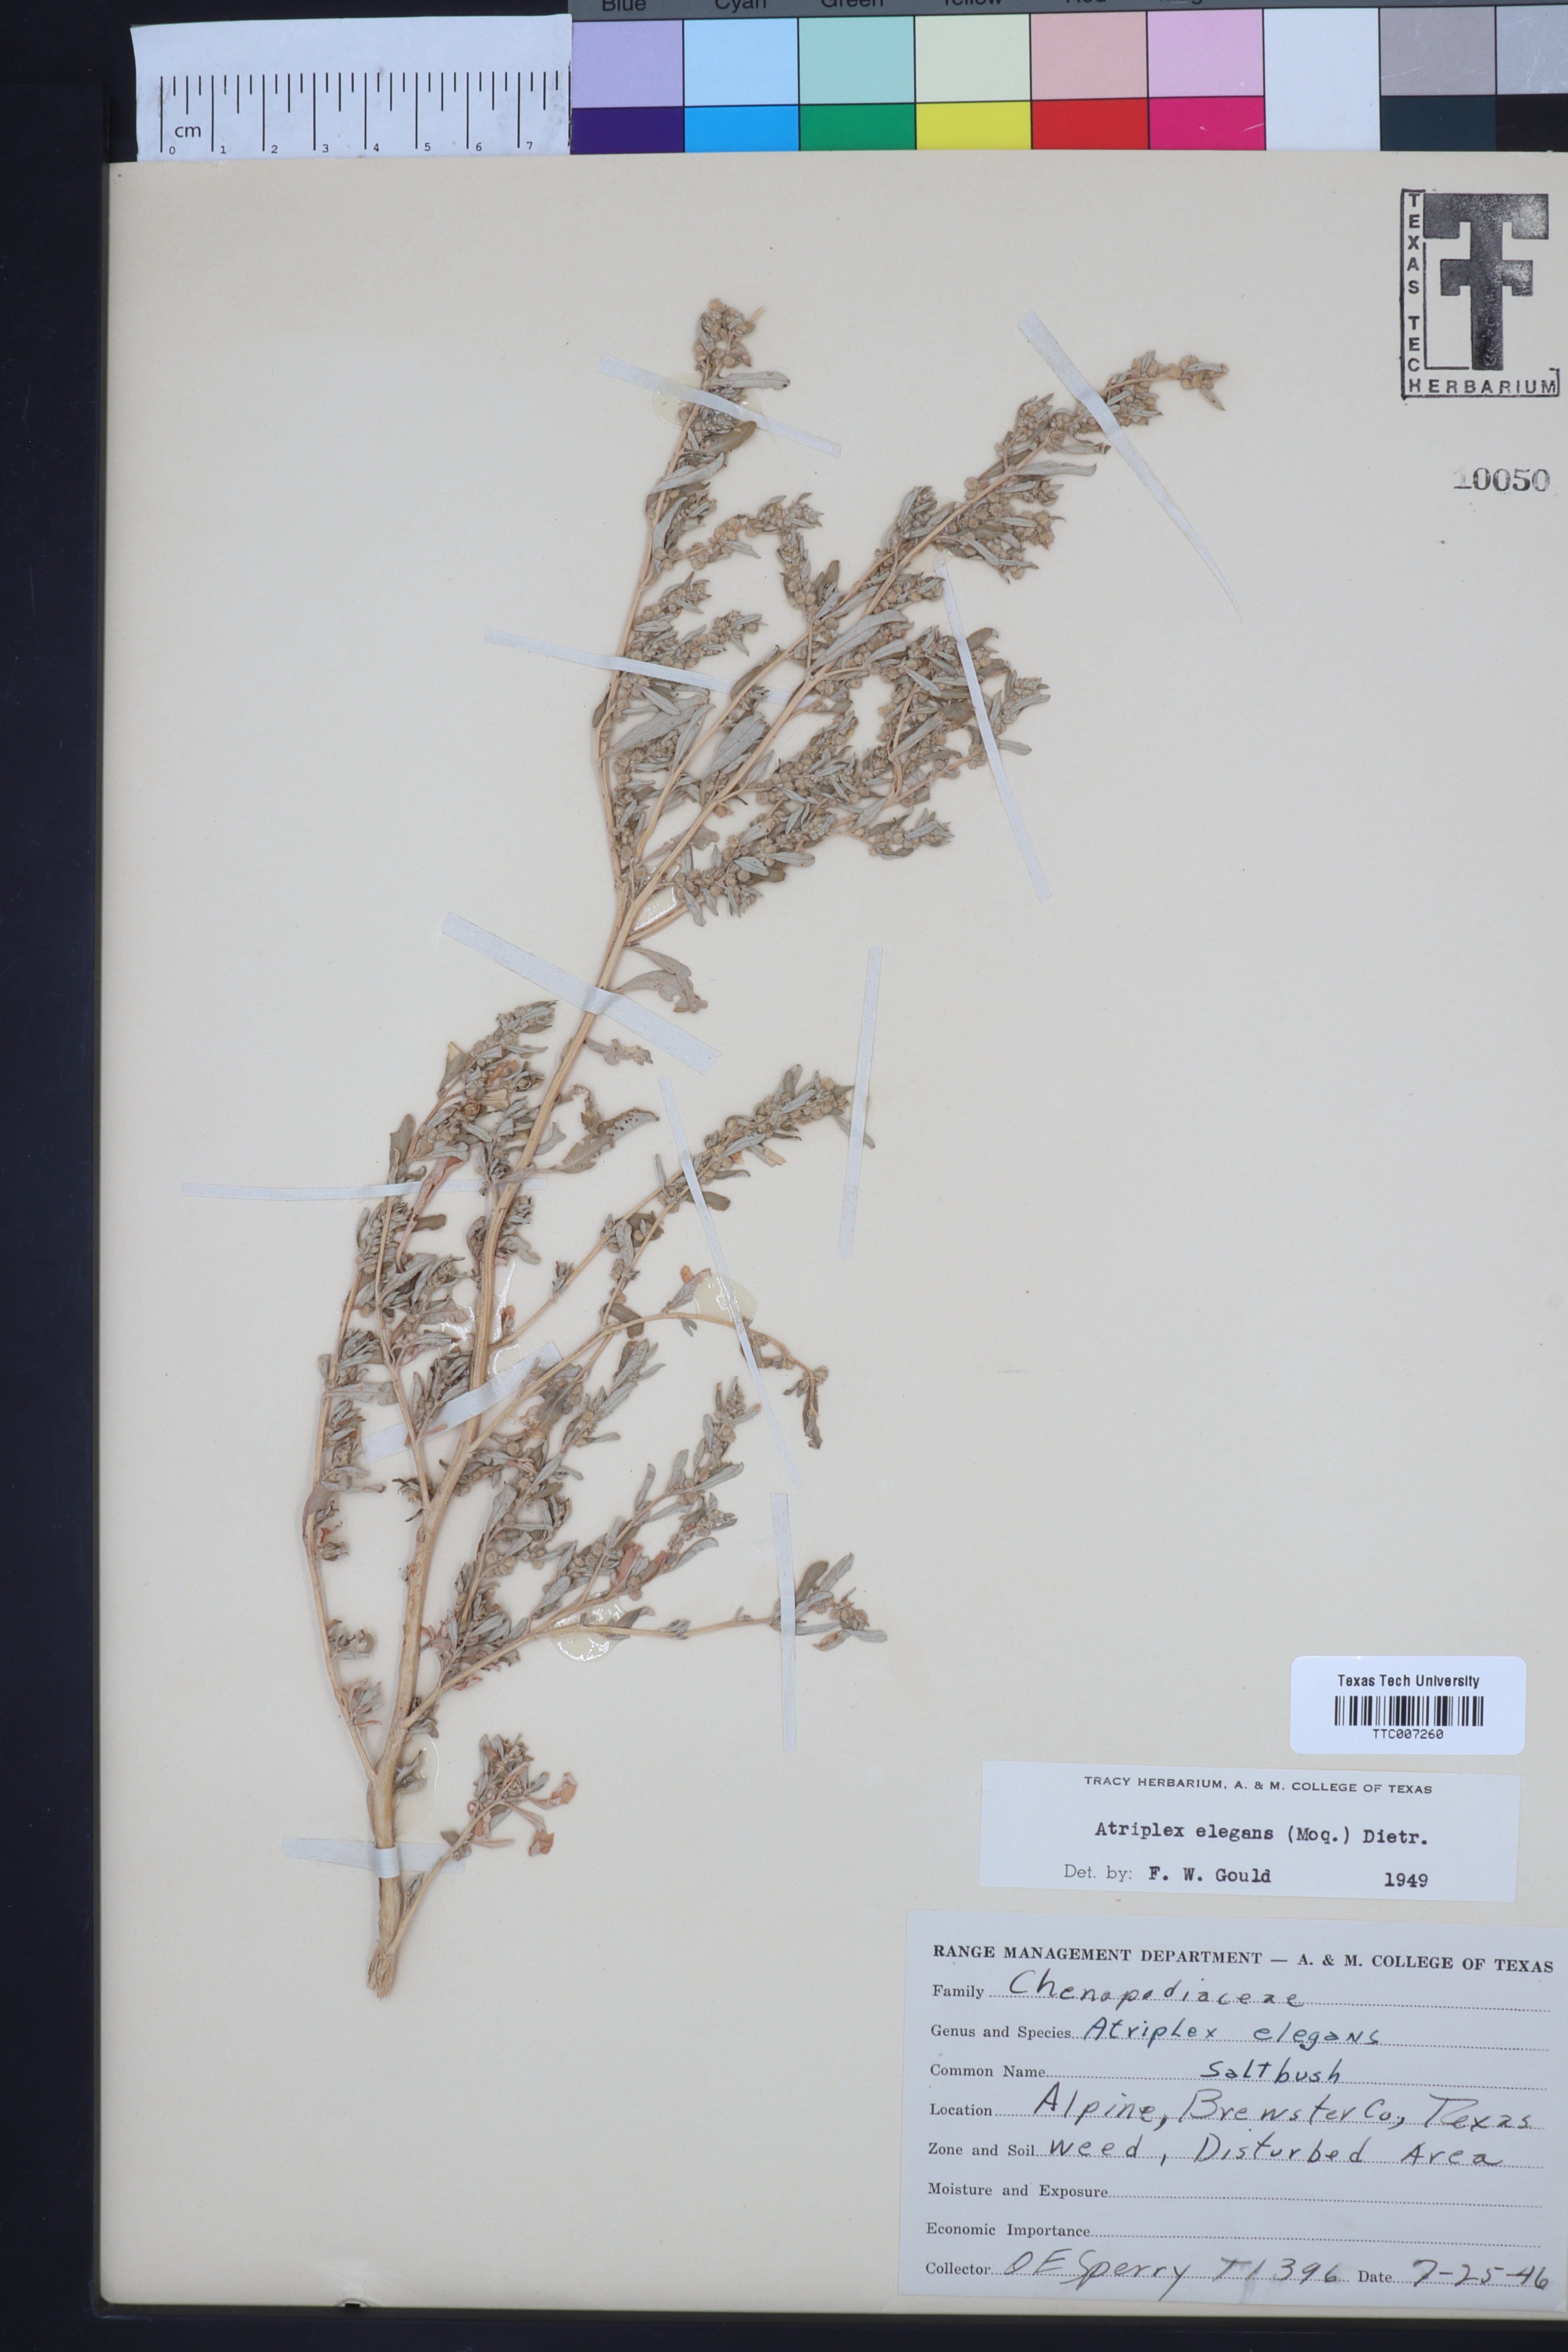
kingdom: Plantae
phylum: Tracheophyta
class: Magnoliopsida
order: Caryophyllales
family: Amaranthaceae
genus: Atriplex
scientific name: Atriplex elegans
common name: Wheelscale orach
